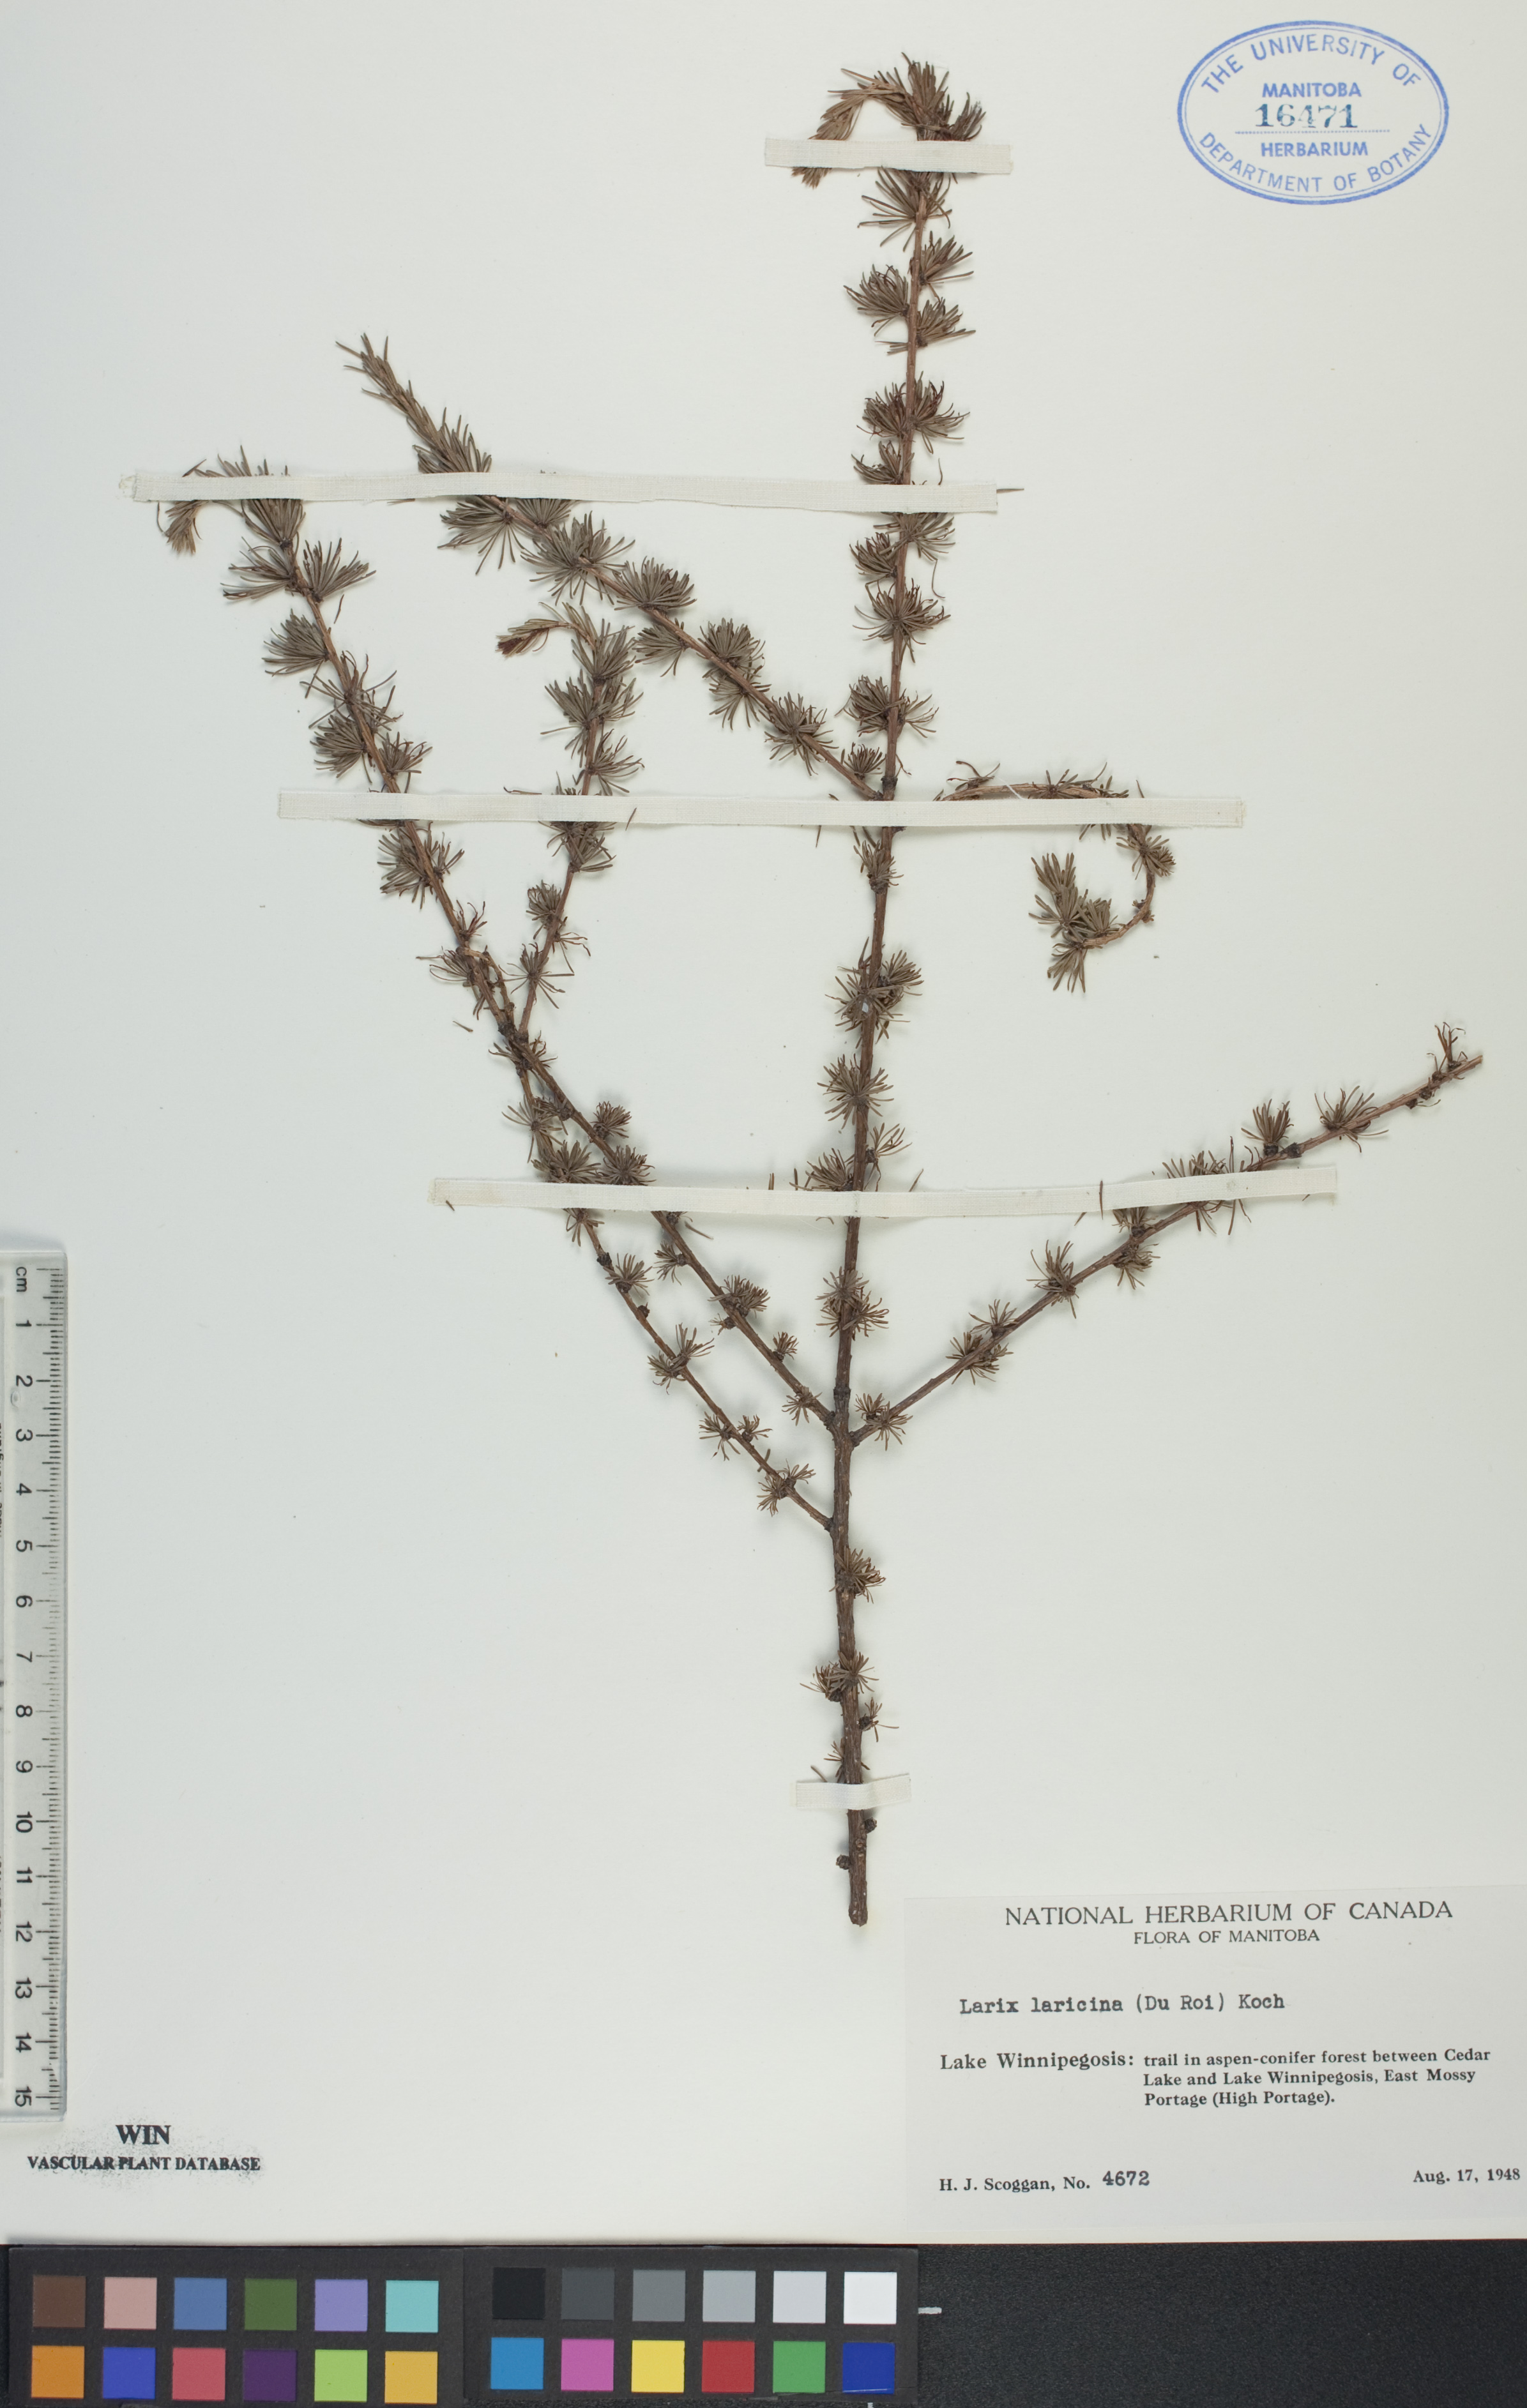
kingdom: Plantae
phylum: Tracheophyta
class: Pinopsida
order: Pinales
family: Pinaceae
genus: Larix
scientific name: Larix laricina
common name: American larch
